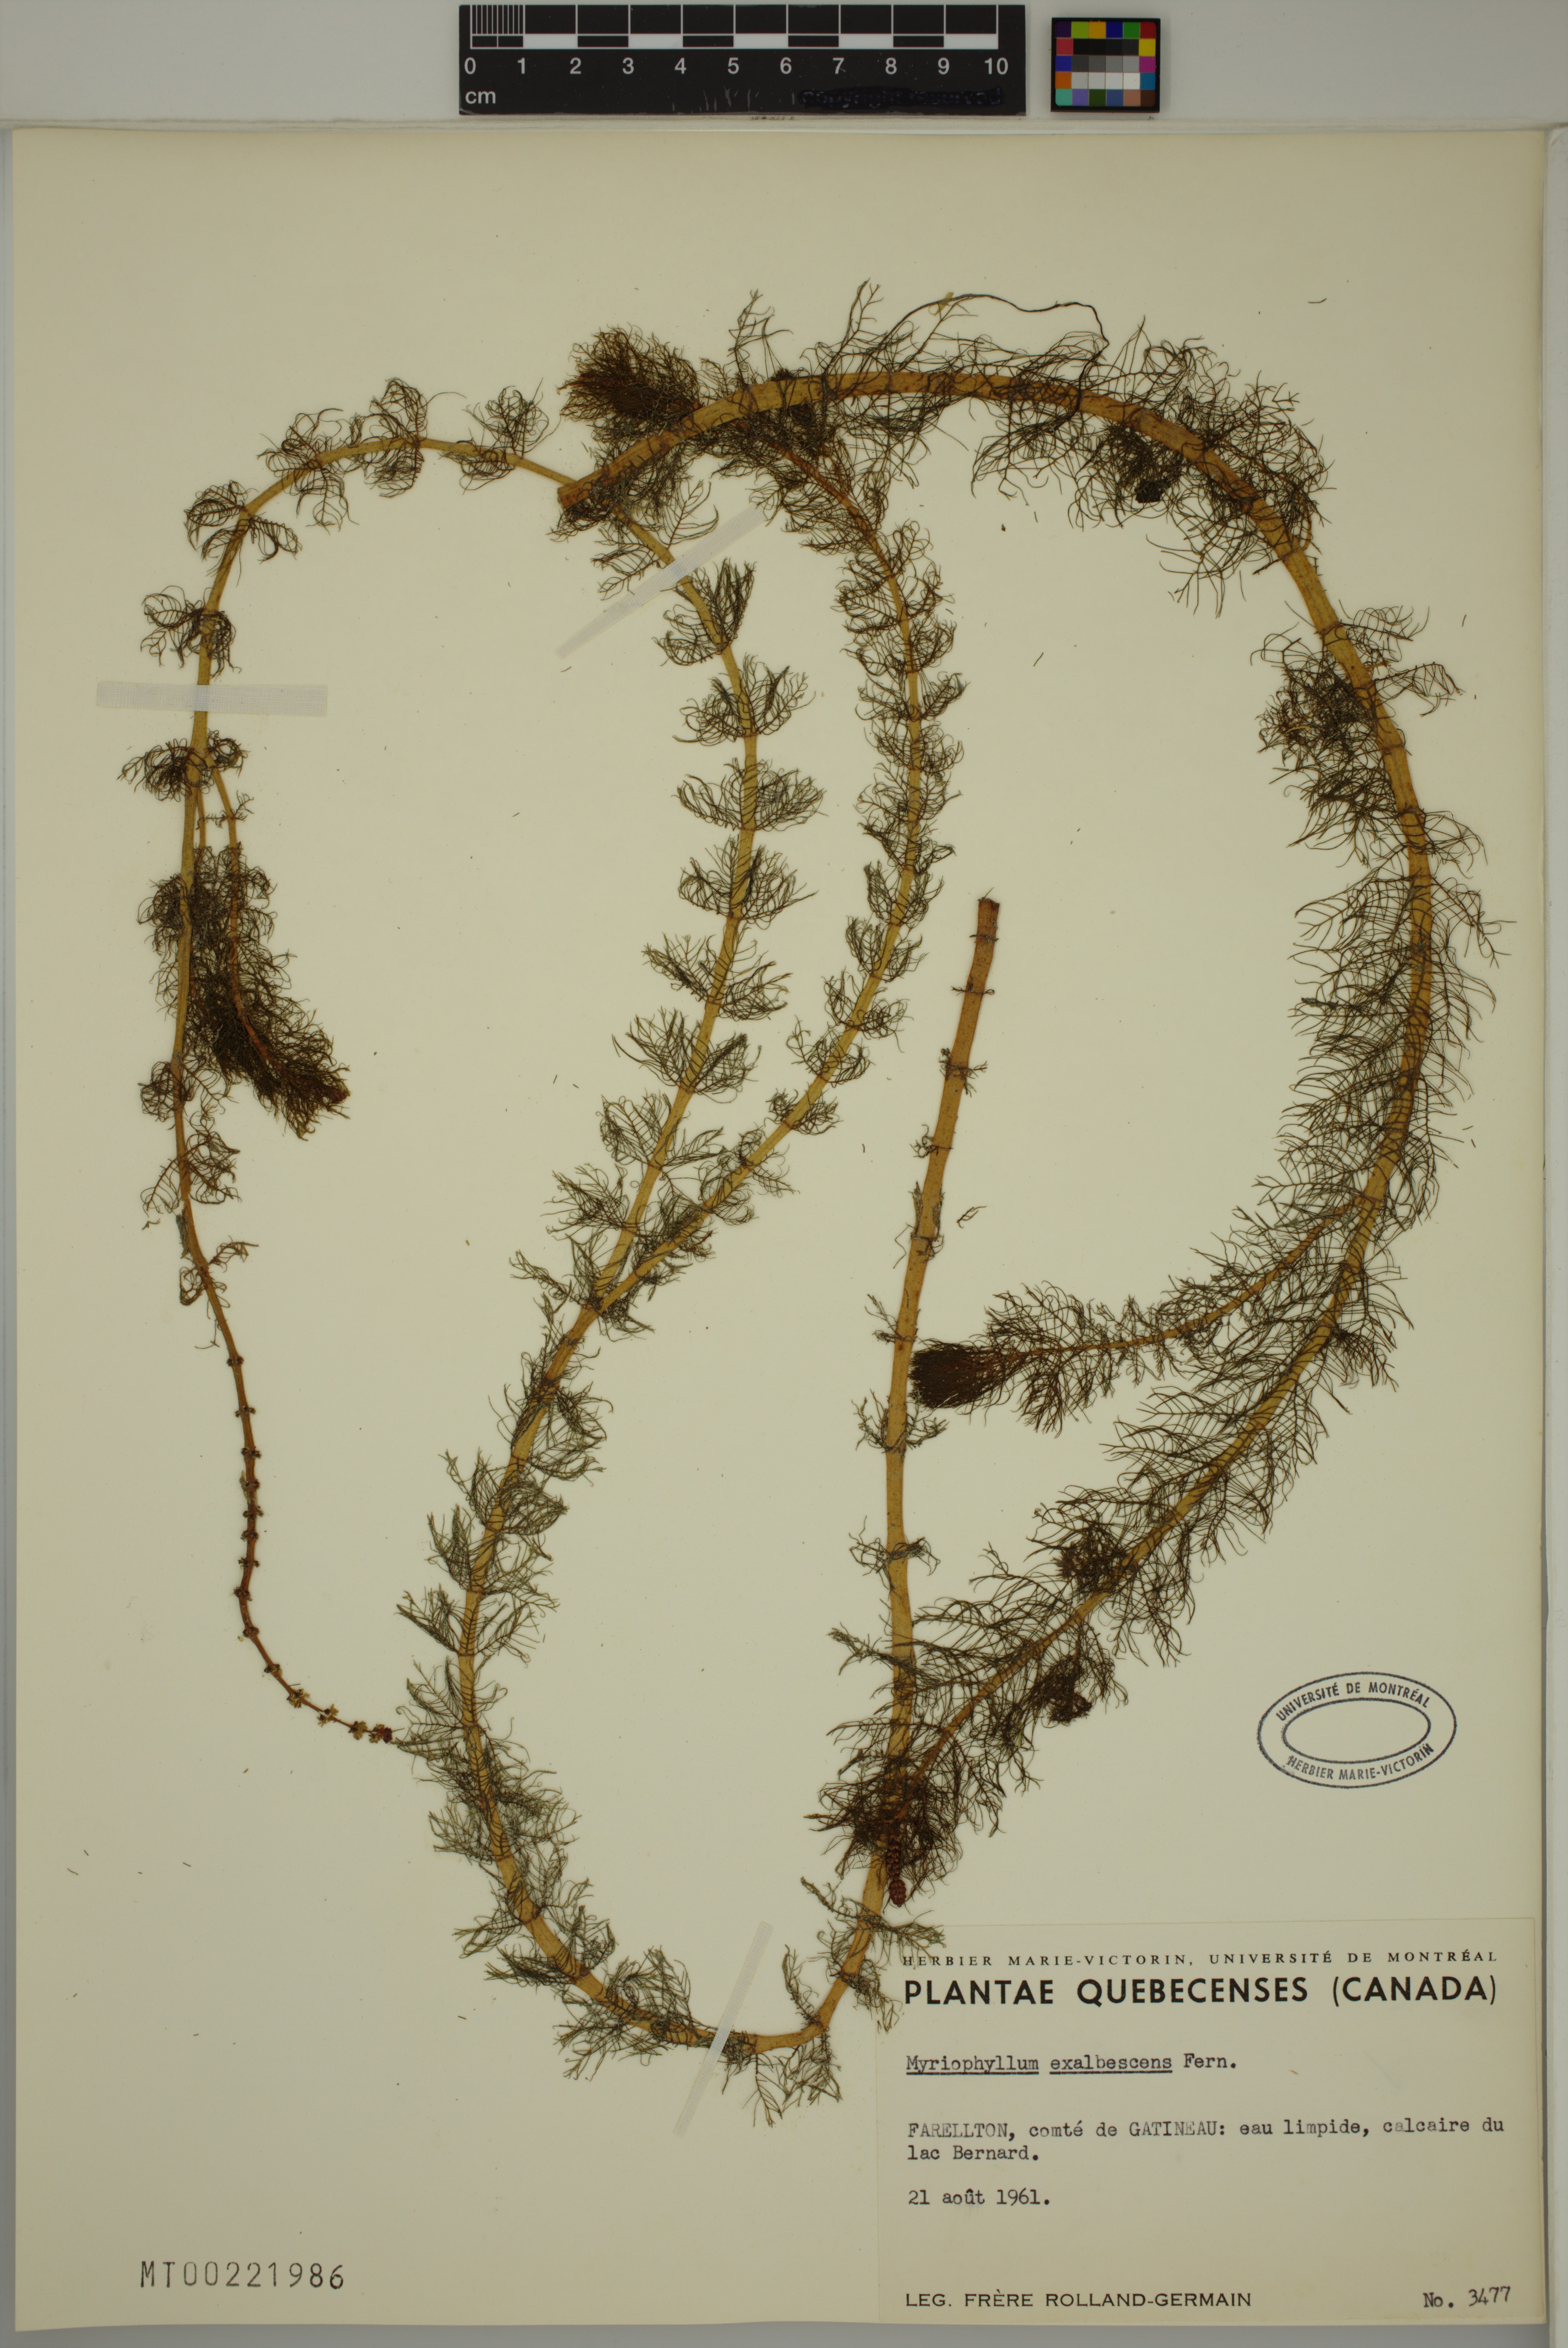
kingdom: Plantae
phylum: Tracheophyta
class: Magnoliopsida
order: Saxifragales
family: Haloragaceae
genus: Myriophyllum
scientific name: Myriophyllum sibiricum
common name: Siberian water-milfoil
